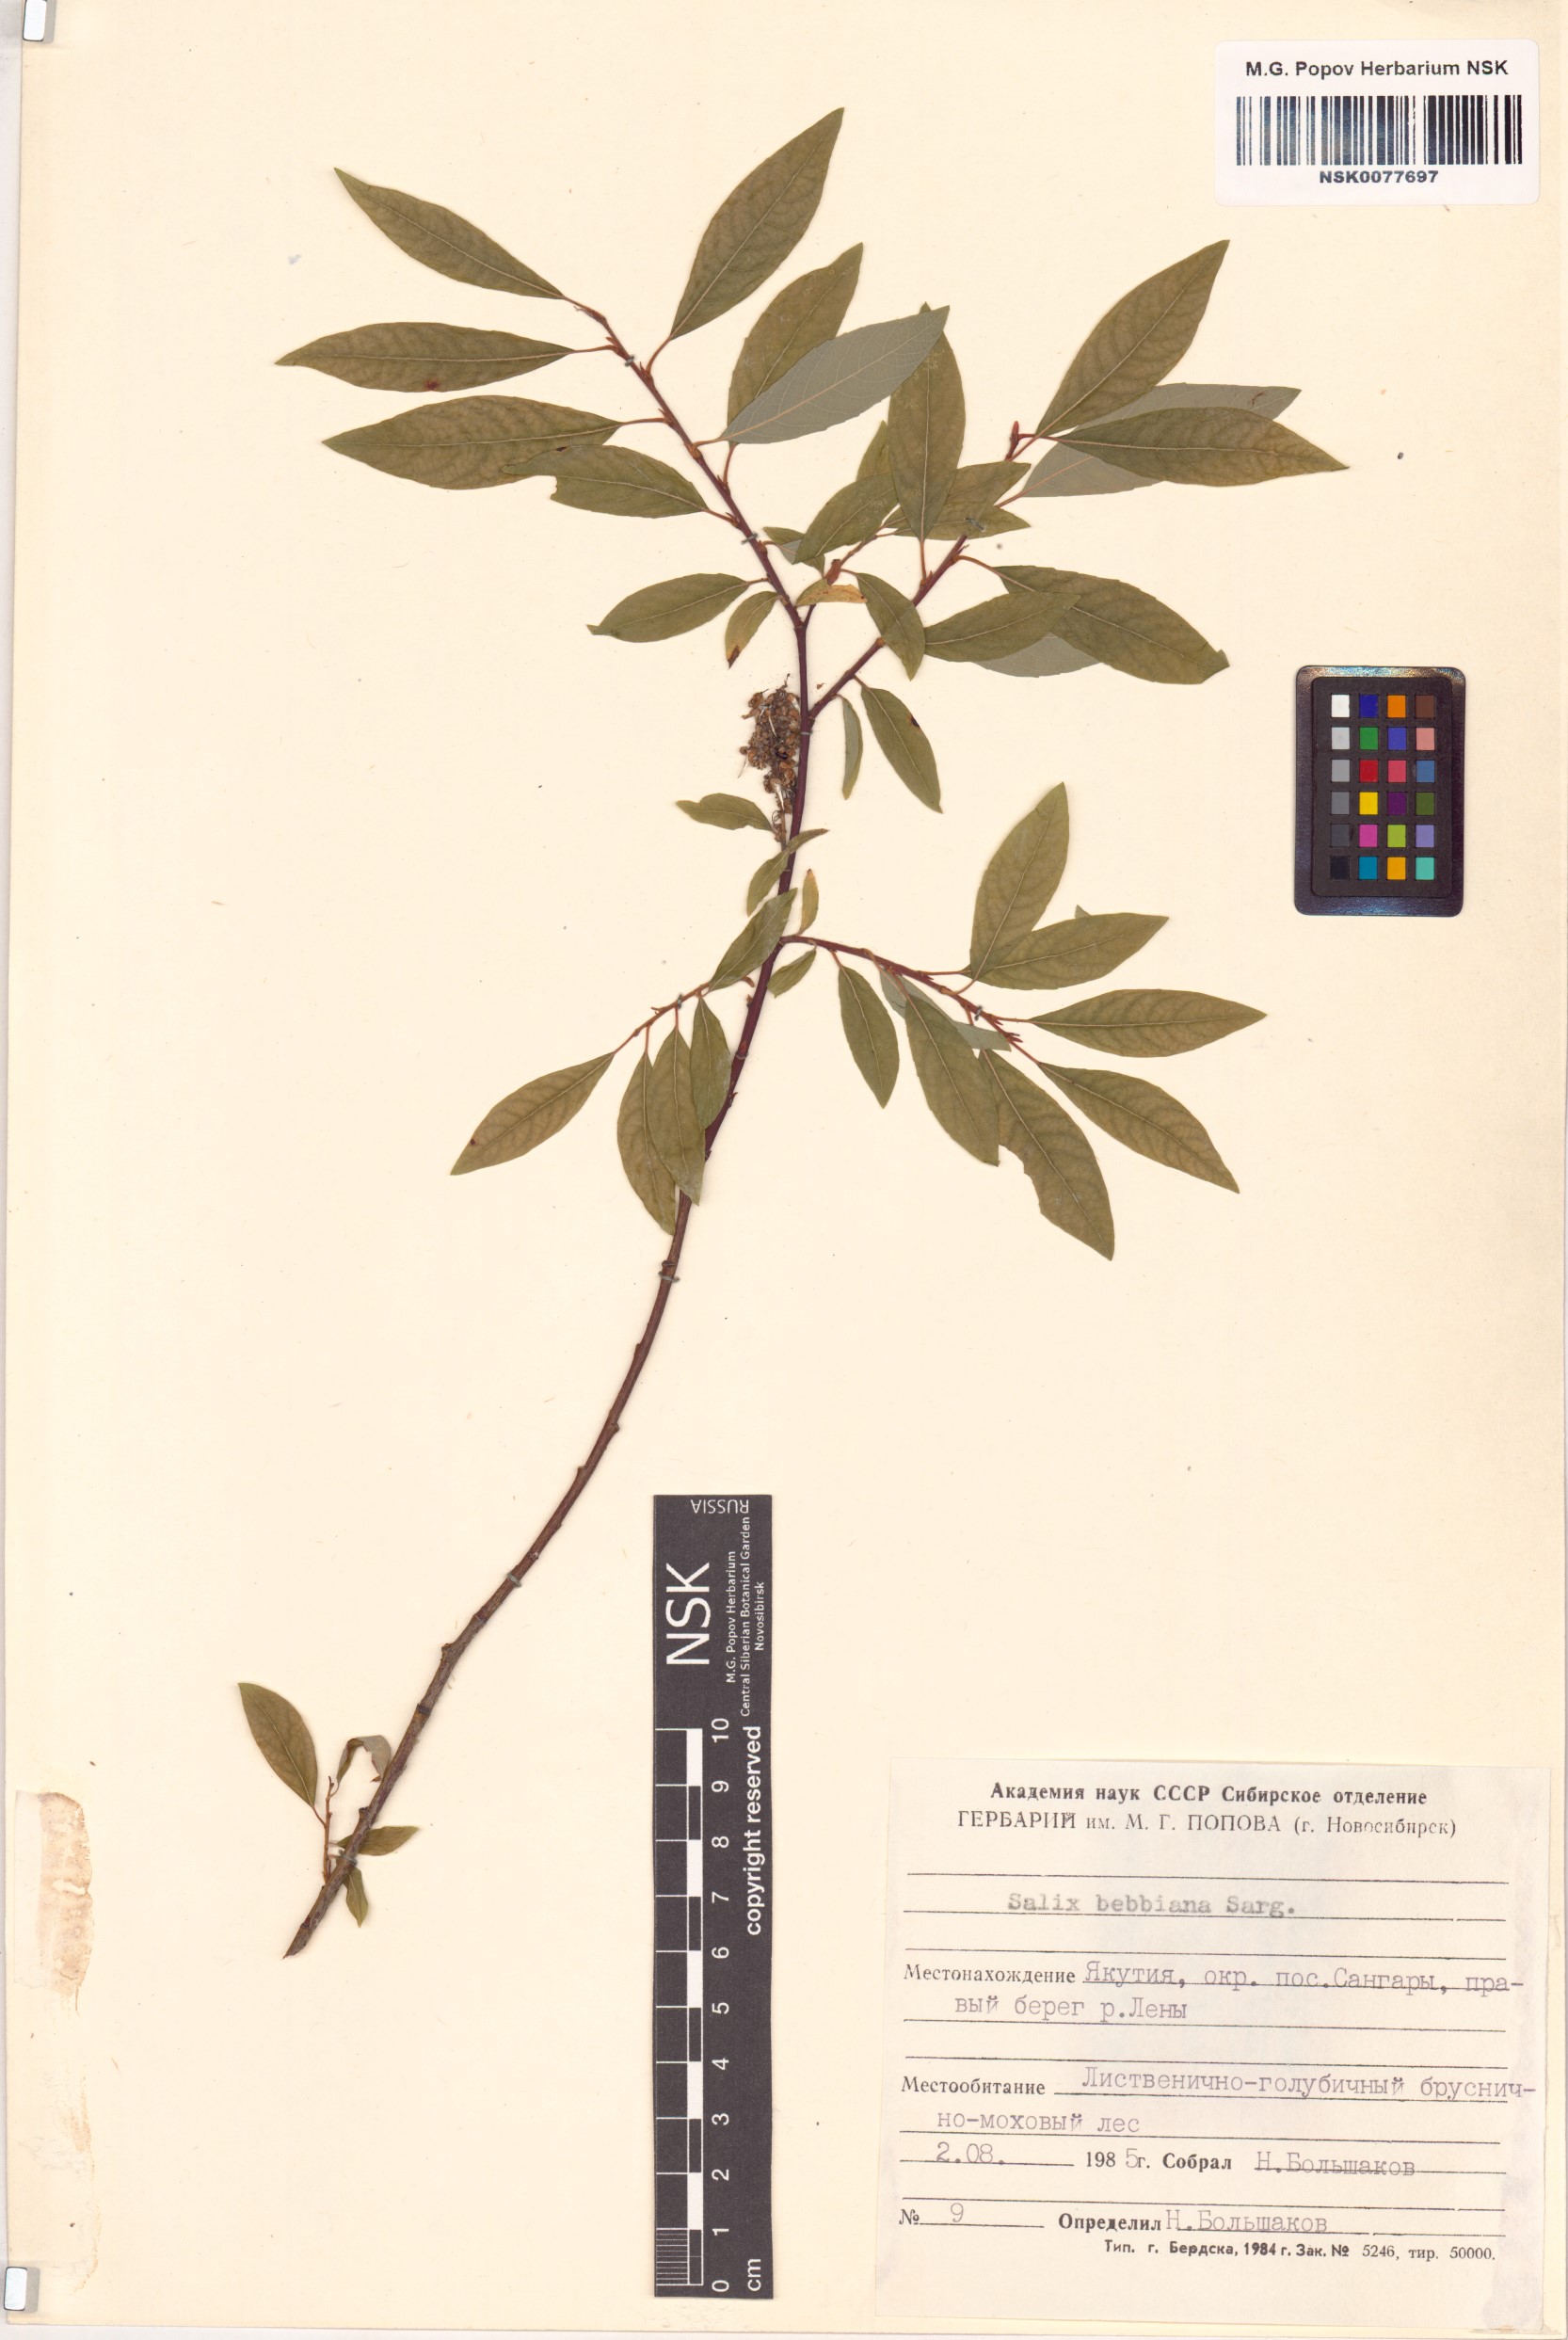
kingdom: Plantae
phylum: Tracheophyta
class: Magnoliopsida
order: Malpighiales
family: Salicaceae
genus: Salix
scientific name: Salix bebbiana
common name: Bebb's willow
